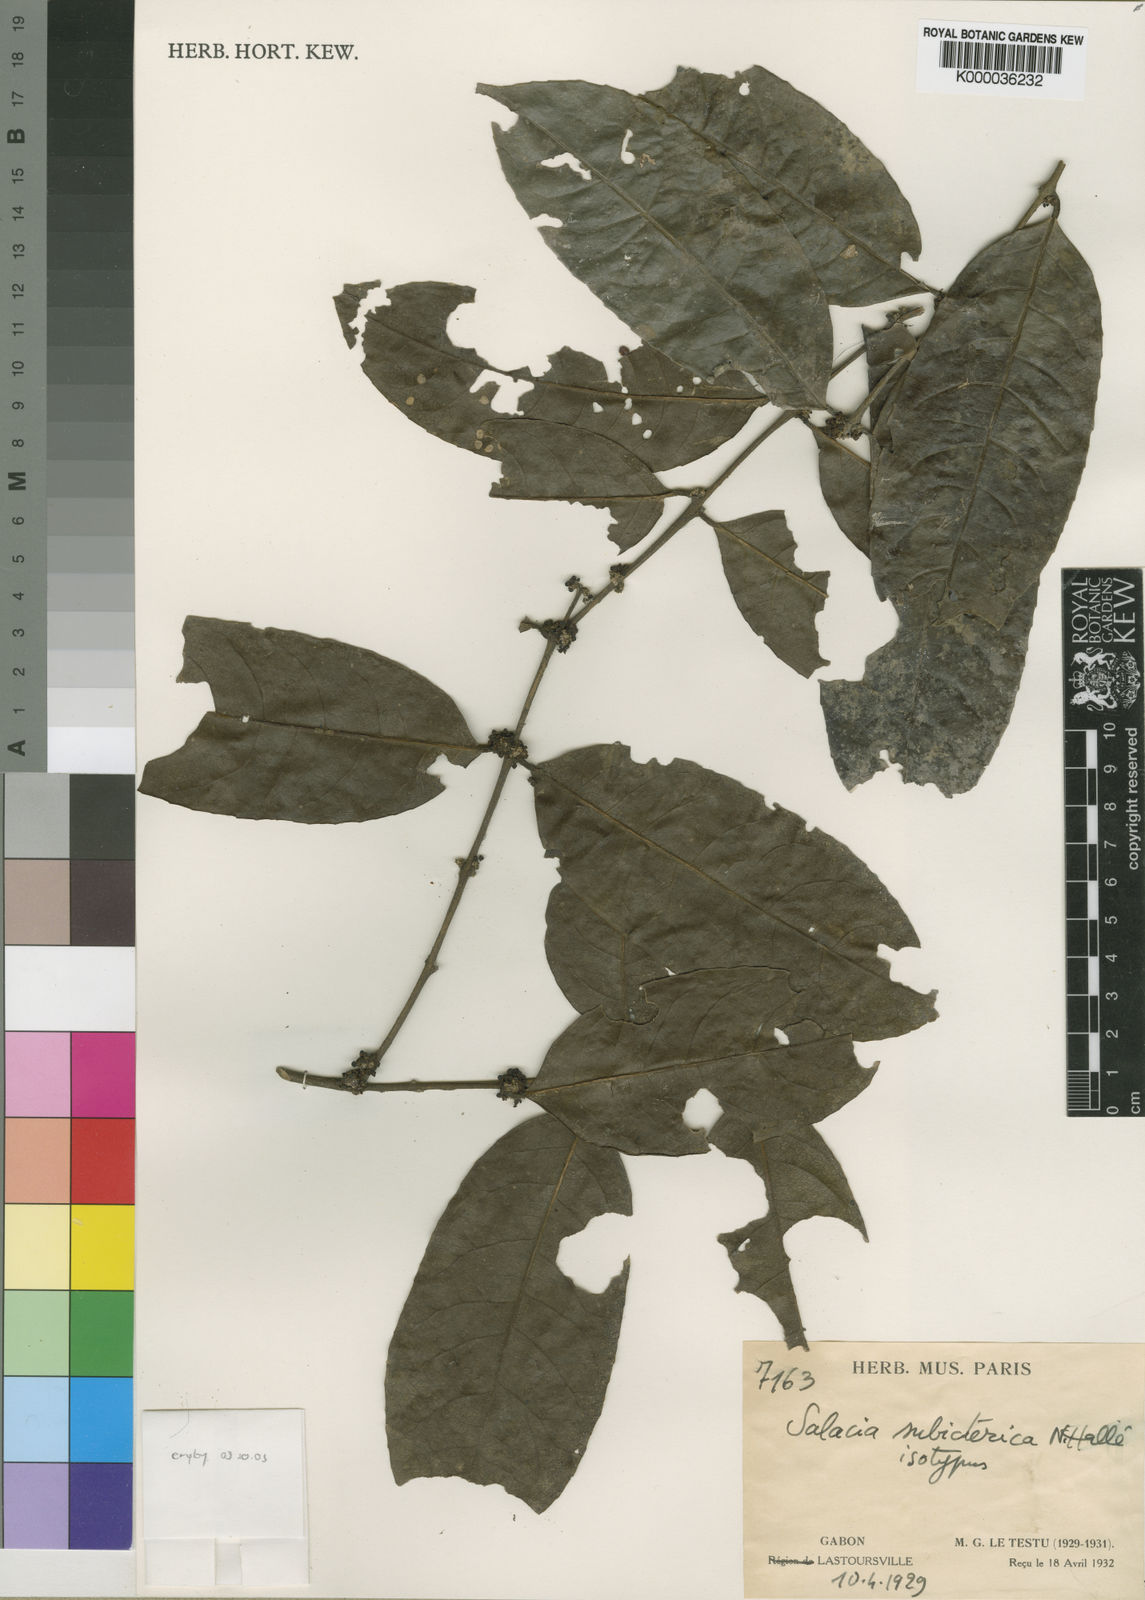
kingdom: Plantae
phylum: Tracheophyta
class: Magnoliopsida
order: Celastrales
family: Celastraceae
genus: Salacia
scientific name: Salacia
